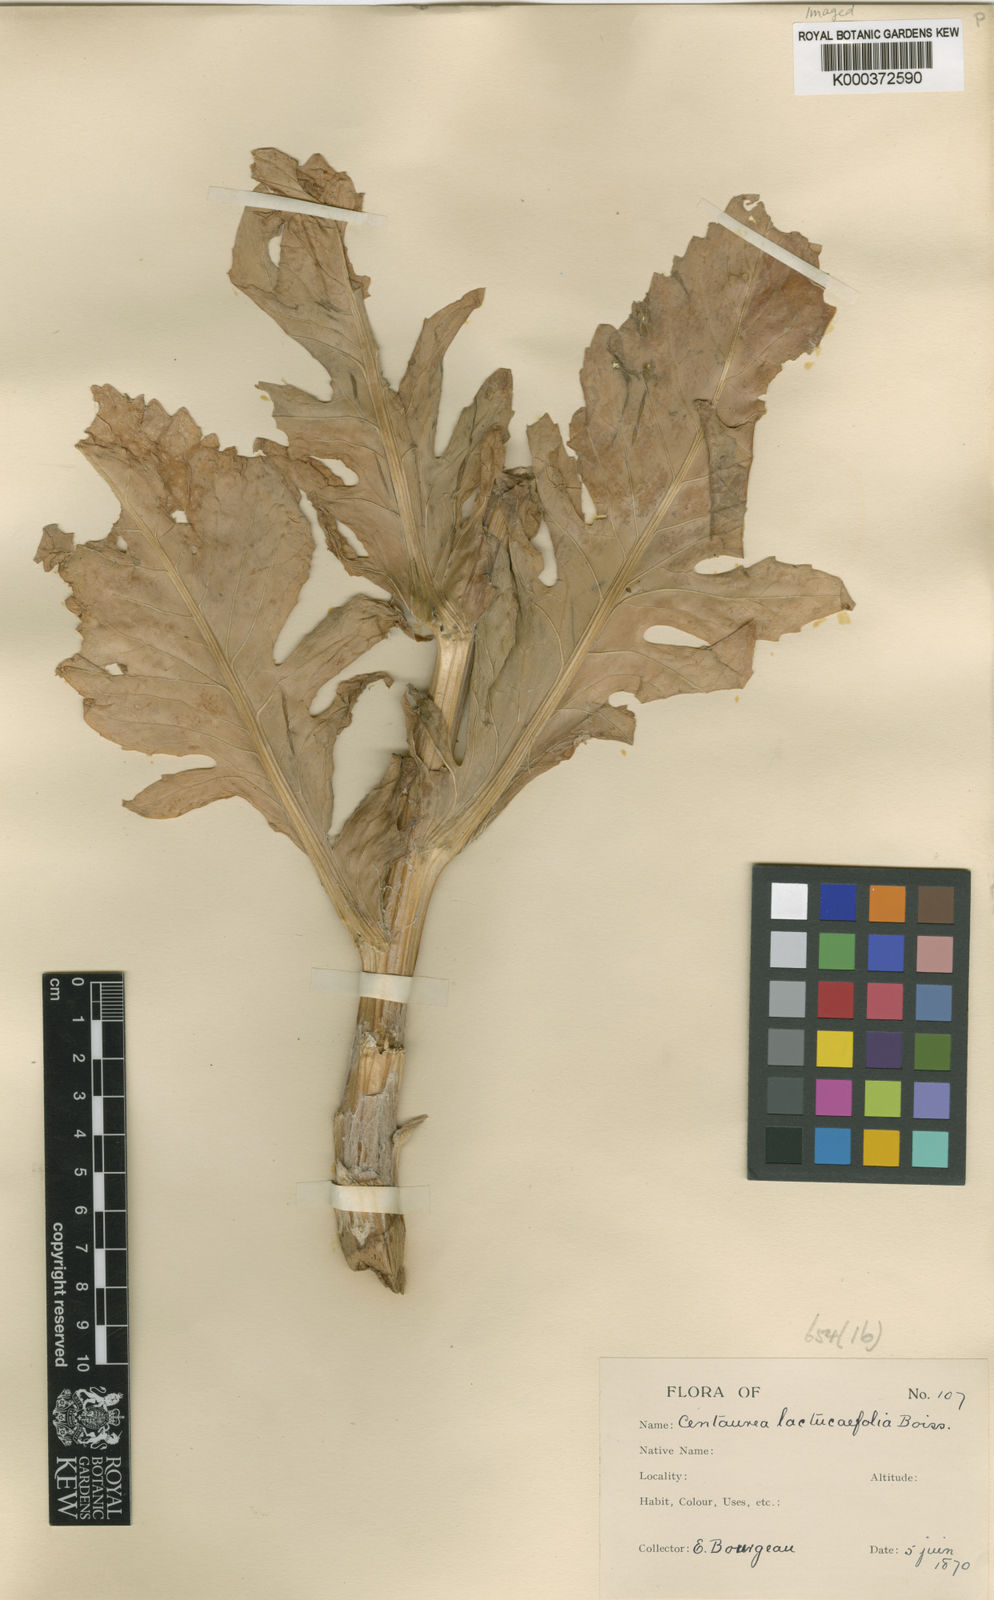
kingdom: Plantae
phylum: Tracheophyta
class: Magnoliopsida
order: Asterales
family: Asteraceae
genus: Centaurea
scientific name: Centaurea lactucifolia
